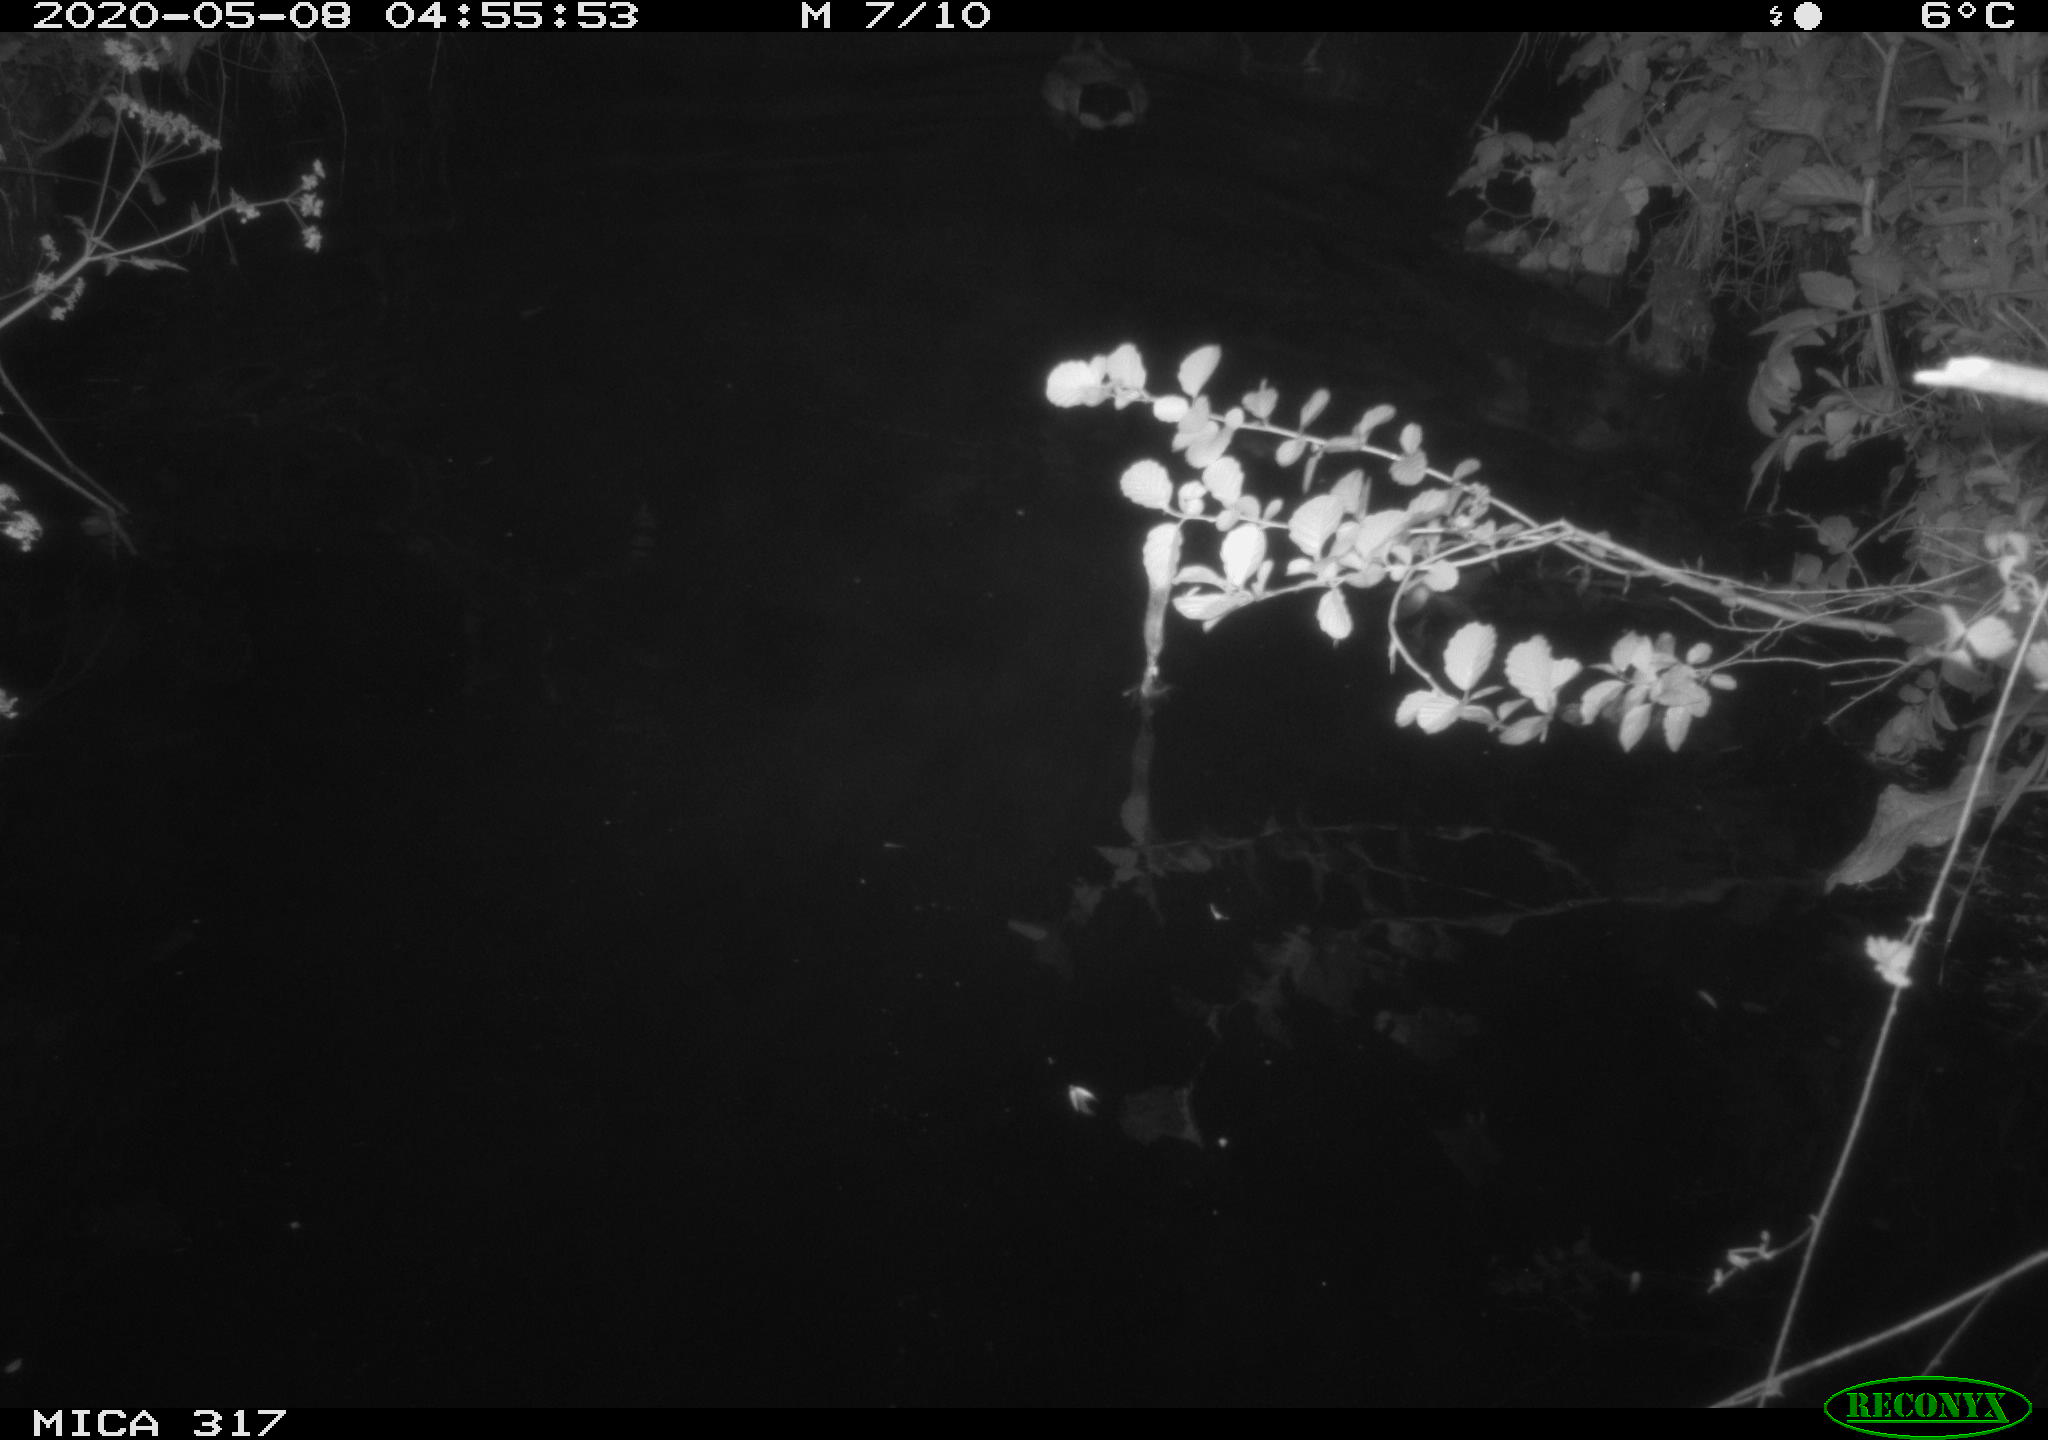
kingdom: Animalia
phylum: Chordata
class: Aves
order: Anseriformes
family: Anatidae
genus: Anas
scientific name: Anas platyrhynchos
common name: Mallard
